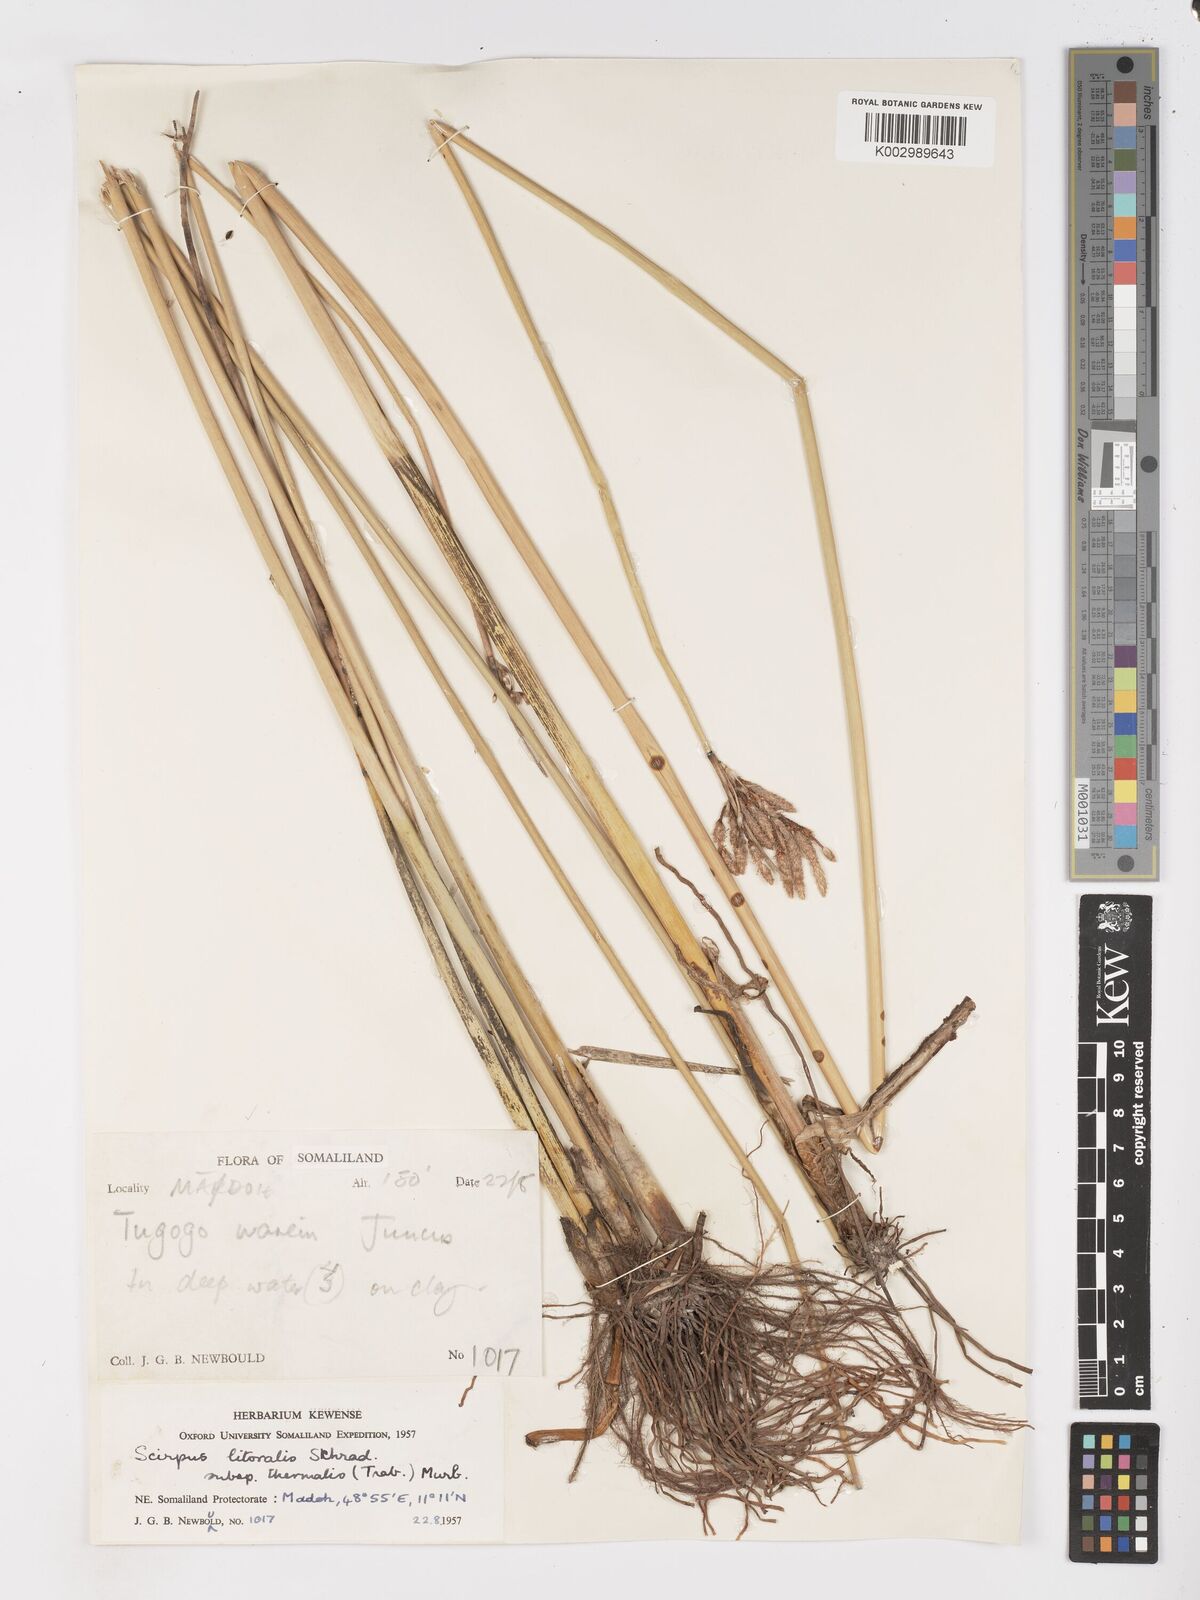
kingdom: Plantae
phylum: Tracheophyta
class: Liliopsida
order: Poales
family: Cyperaceae
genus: Schoenoplectus
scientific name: Schoenoplectus litoralis
